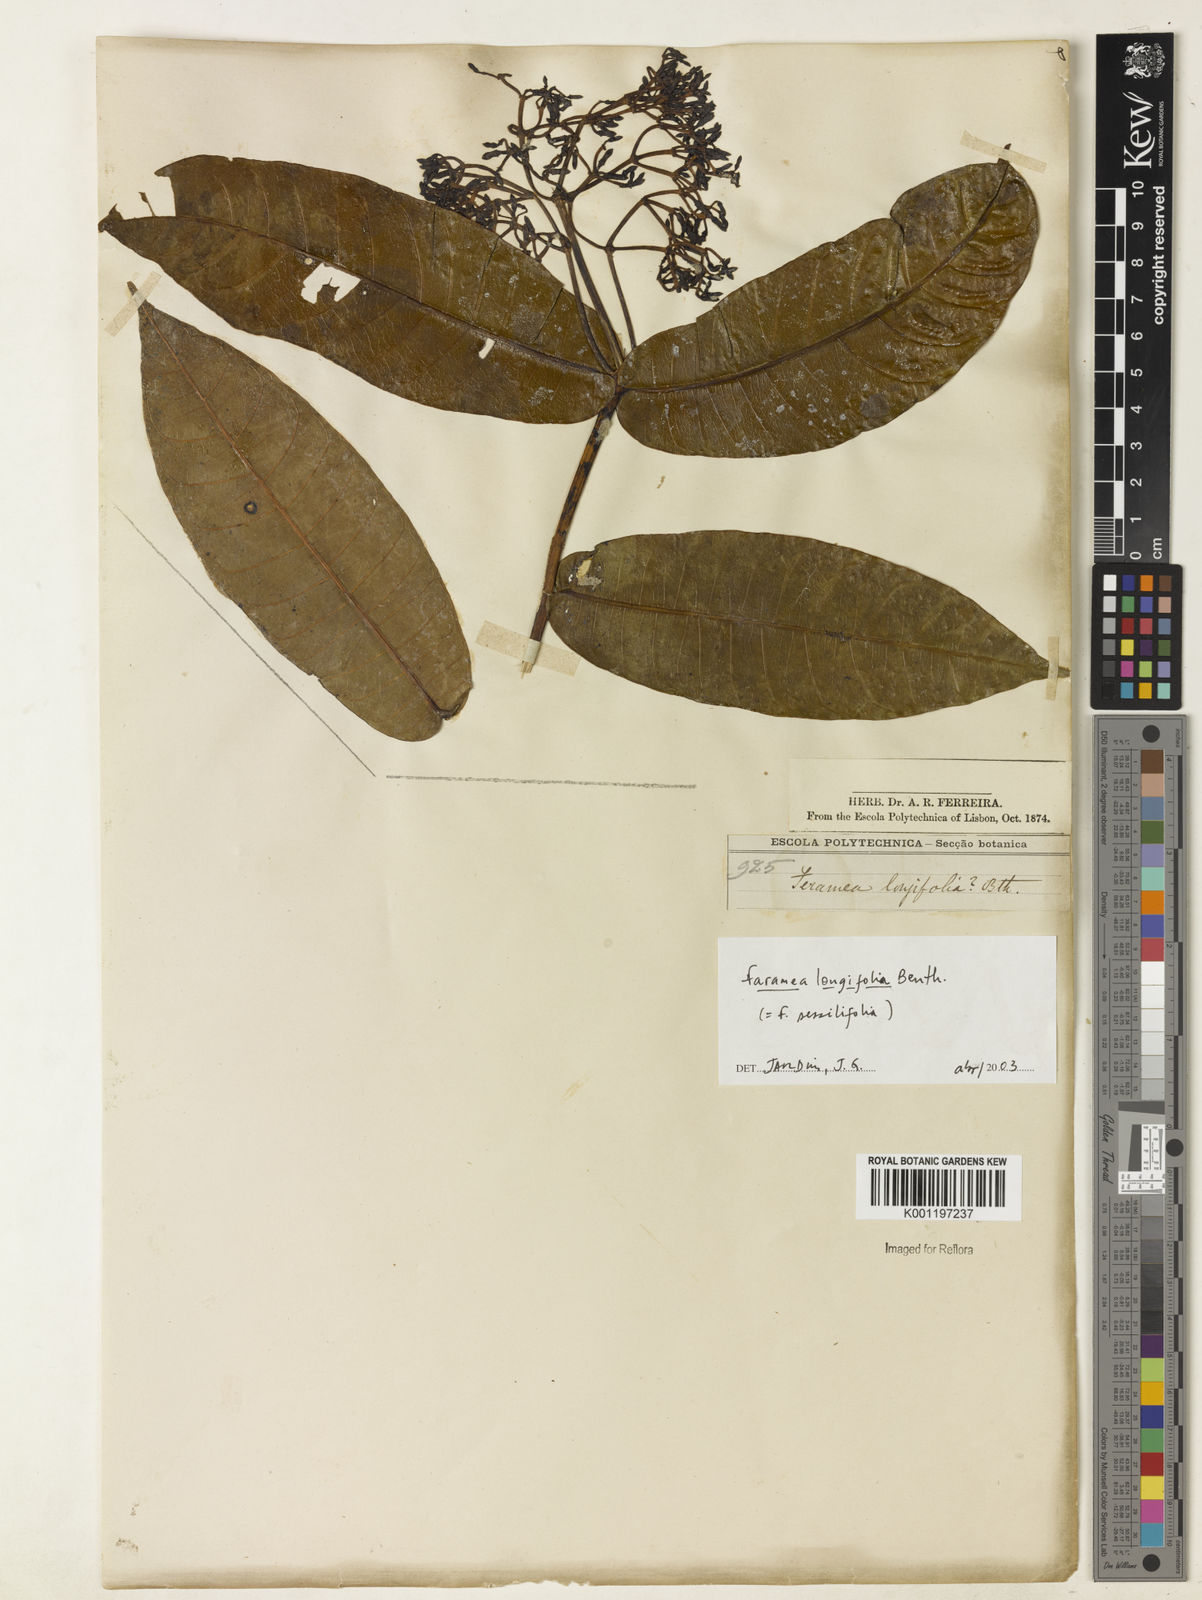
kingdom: Plantae
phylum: Tracheophyta
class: Magnoliopsida
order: Gentianales
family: Rubiaceae
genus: Faramea
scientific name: Faramea sessilifolia
